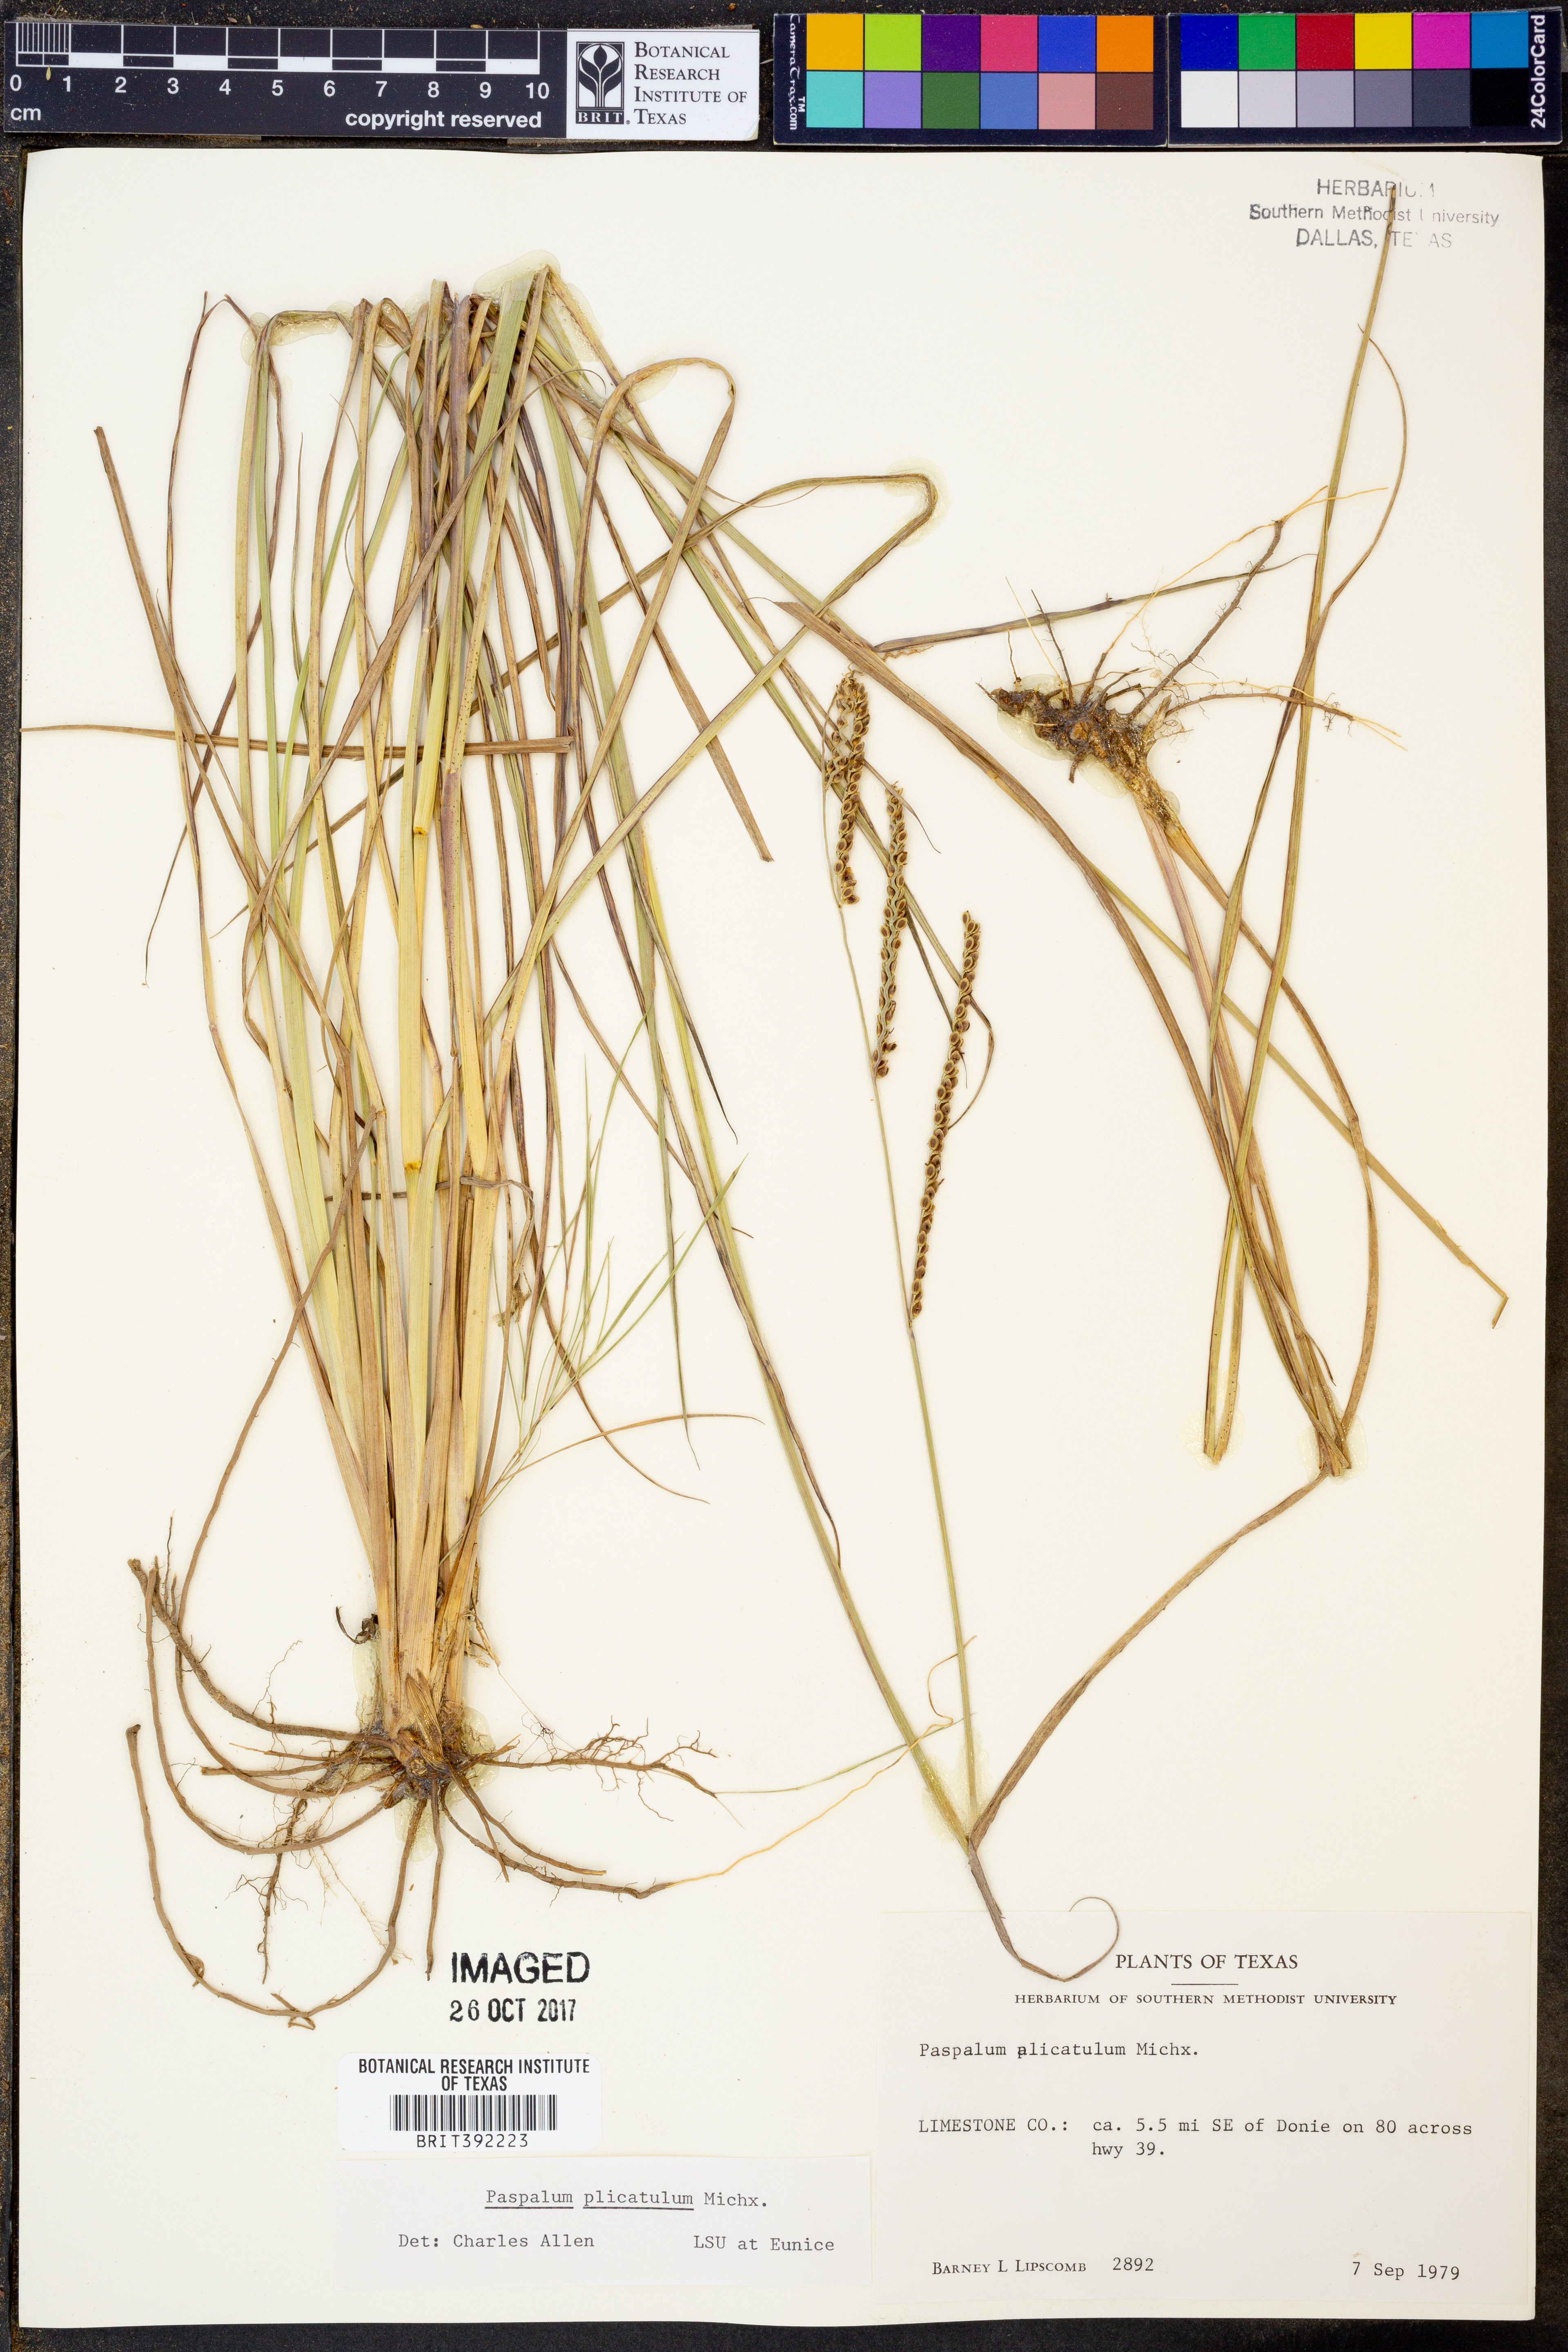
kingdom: Plantae
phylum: Tracheophyta
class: Liliopsida
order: Poales
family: Poaceae
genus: Paspalum
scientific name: Paspalum plicatulum
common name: Top paspalum
